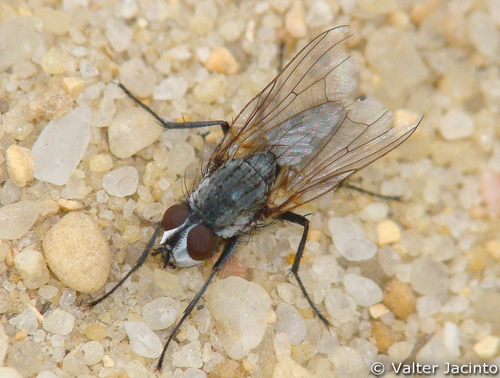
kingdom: Animalia
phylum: Arthropoda
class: Insecta
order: Diptera
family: Anthomyiidae
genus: Leucophora
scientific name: Leucophora cinerea
